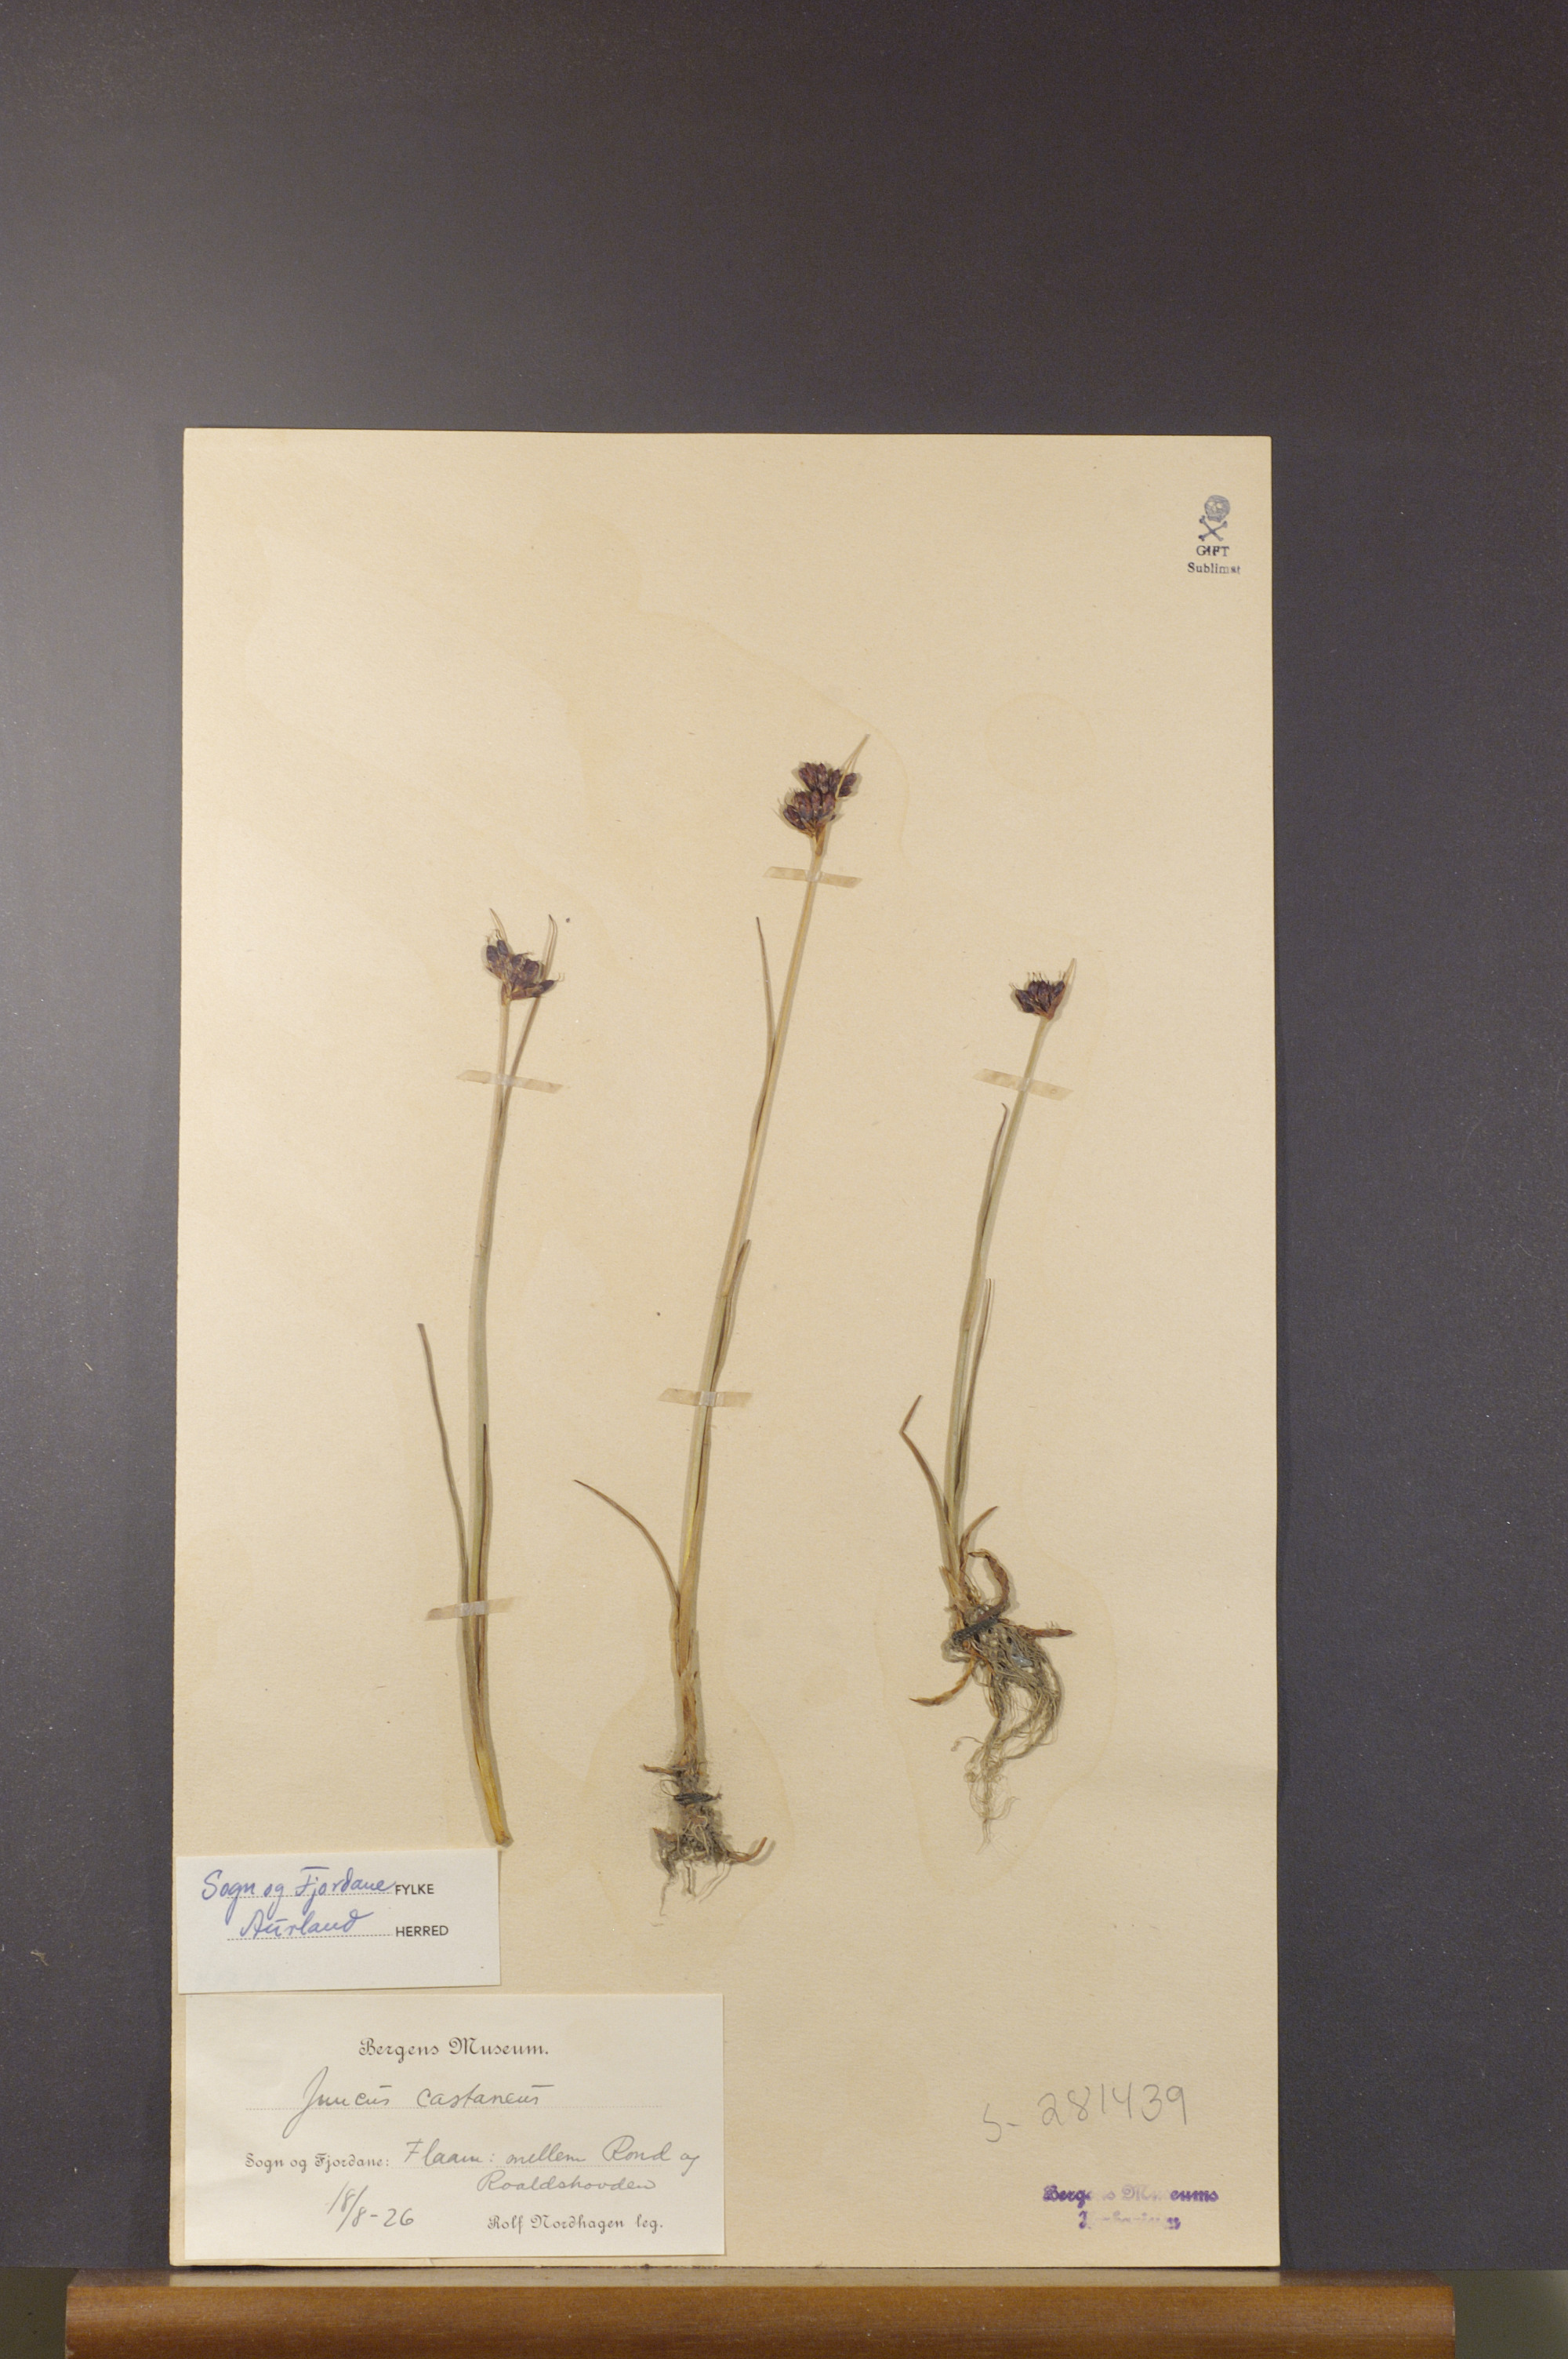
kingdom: Plantae
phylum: Tracheophyta
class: Liliopsida
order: Poales
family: Juncaceae
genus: Juncus
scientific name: Juncus castaneus
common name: Chestnut rush
